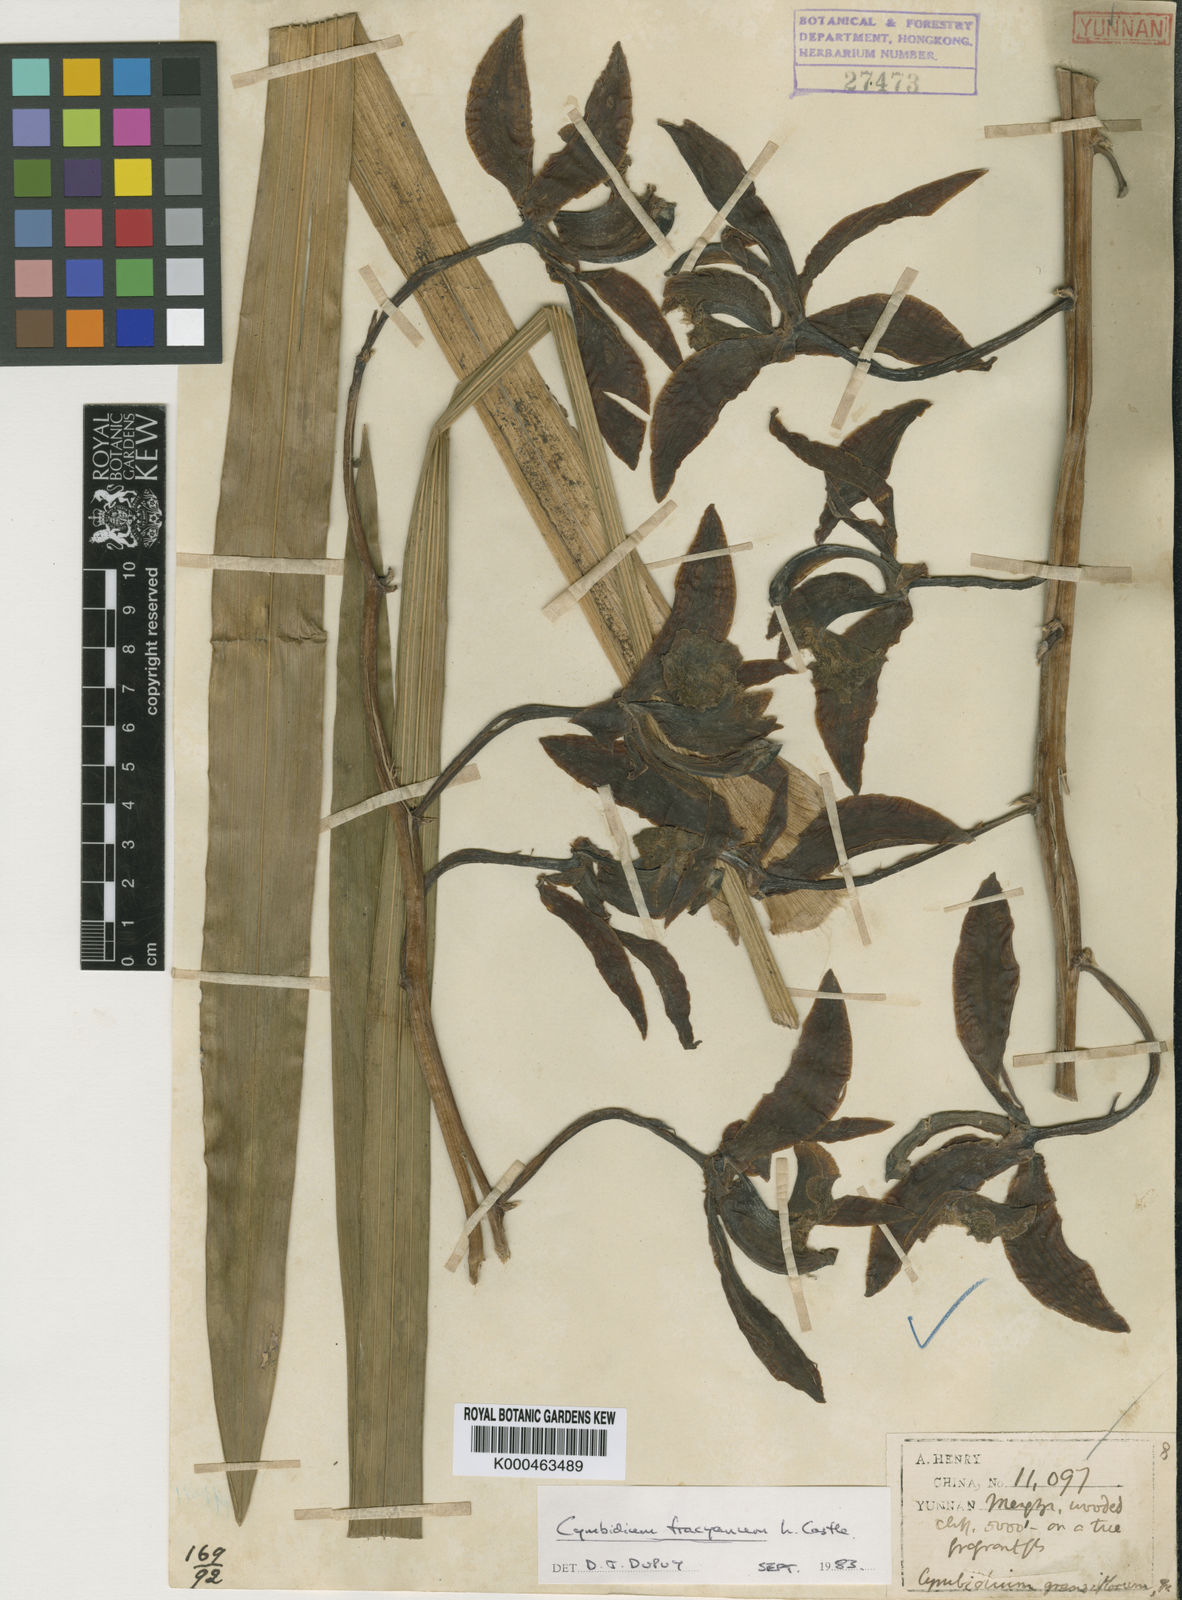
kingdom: Plantae
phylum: Tracheophyta
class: Liliopsida
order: Asparagales
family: Orchidaceae
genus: Cymbidium
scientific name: Cymbidium tracyanum
